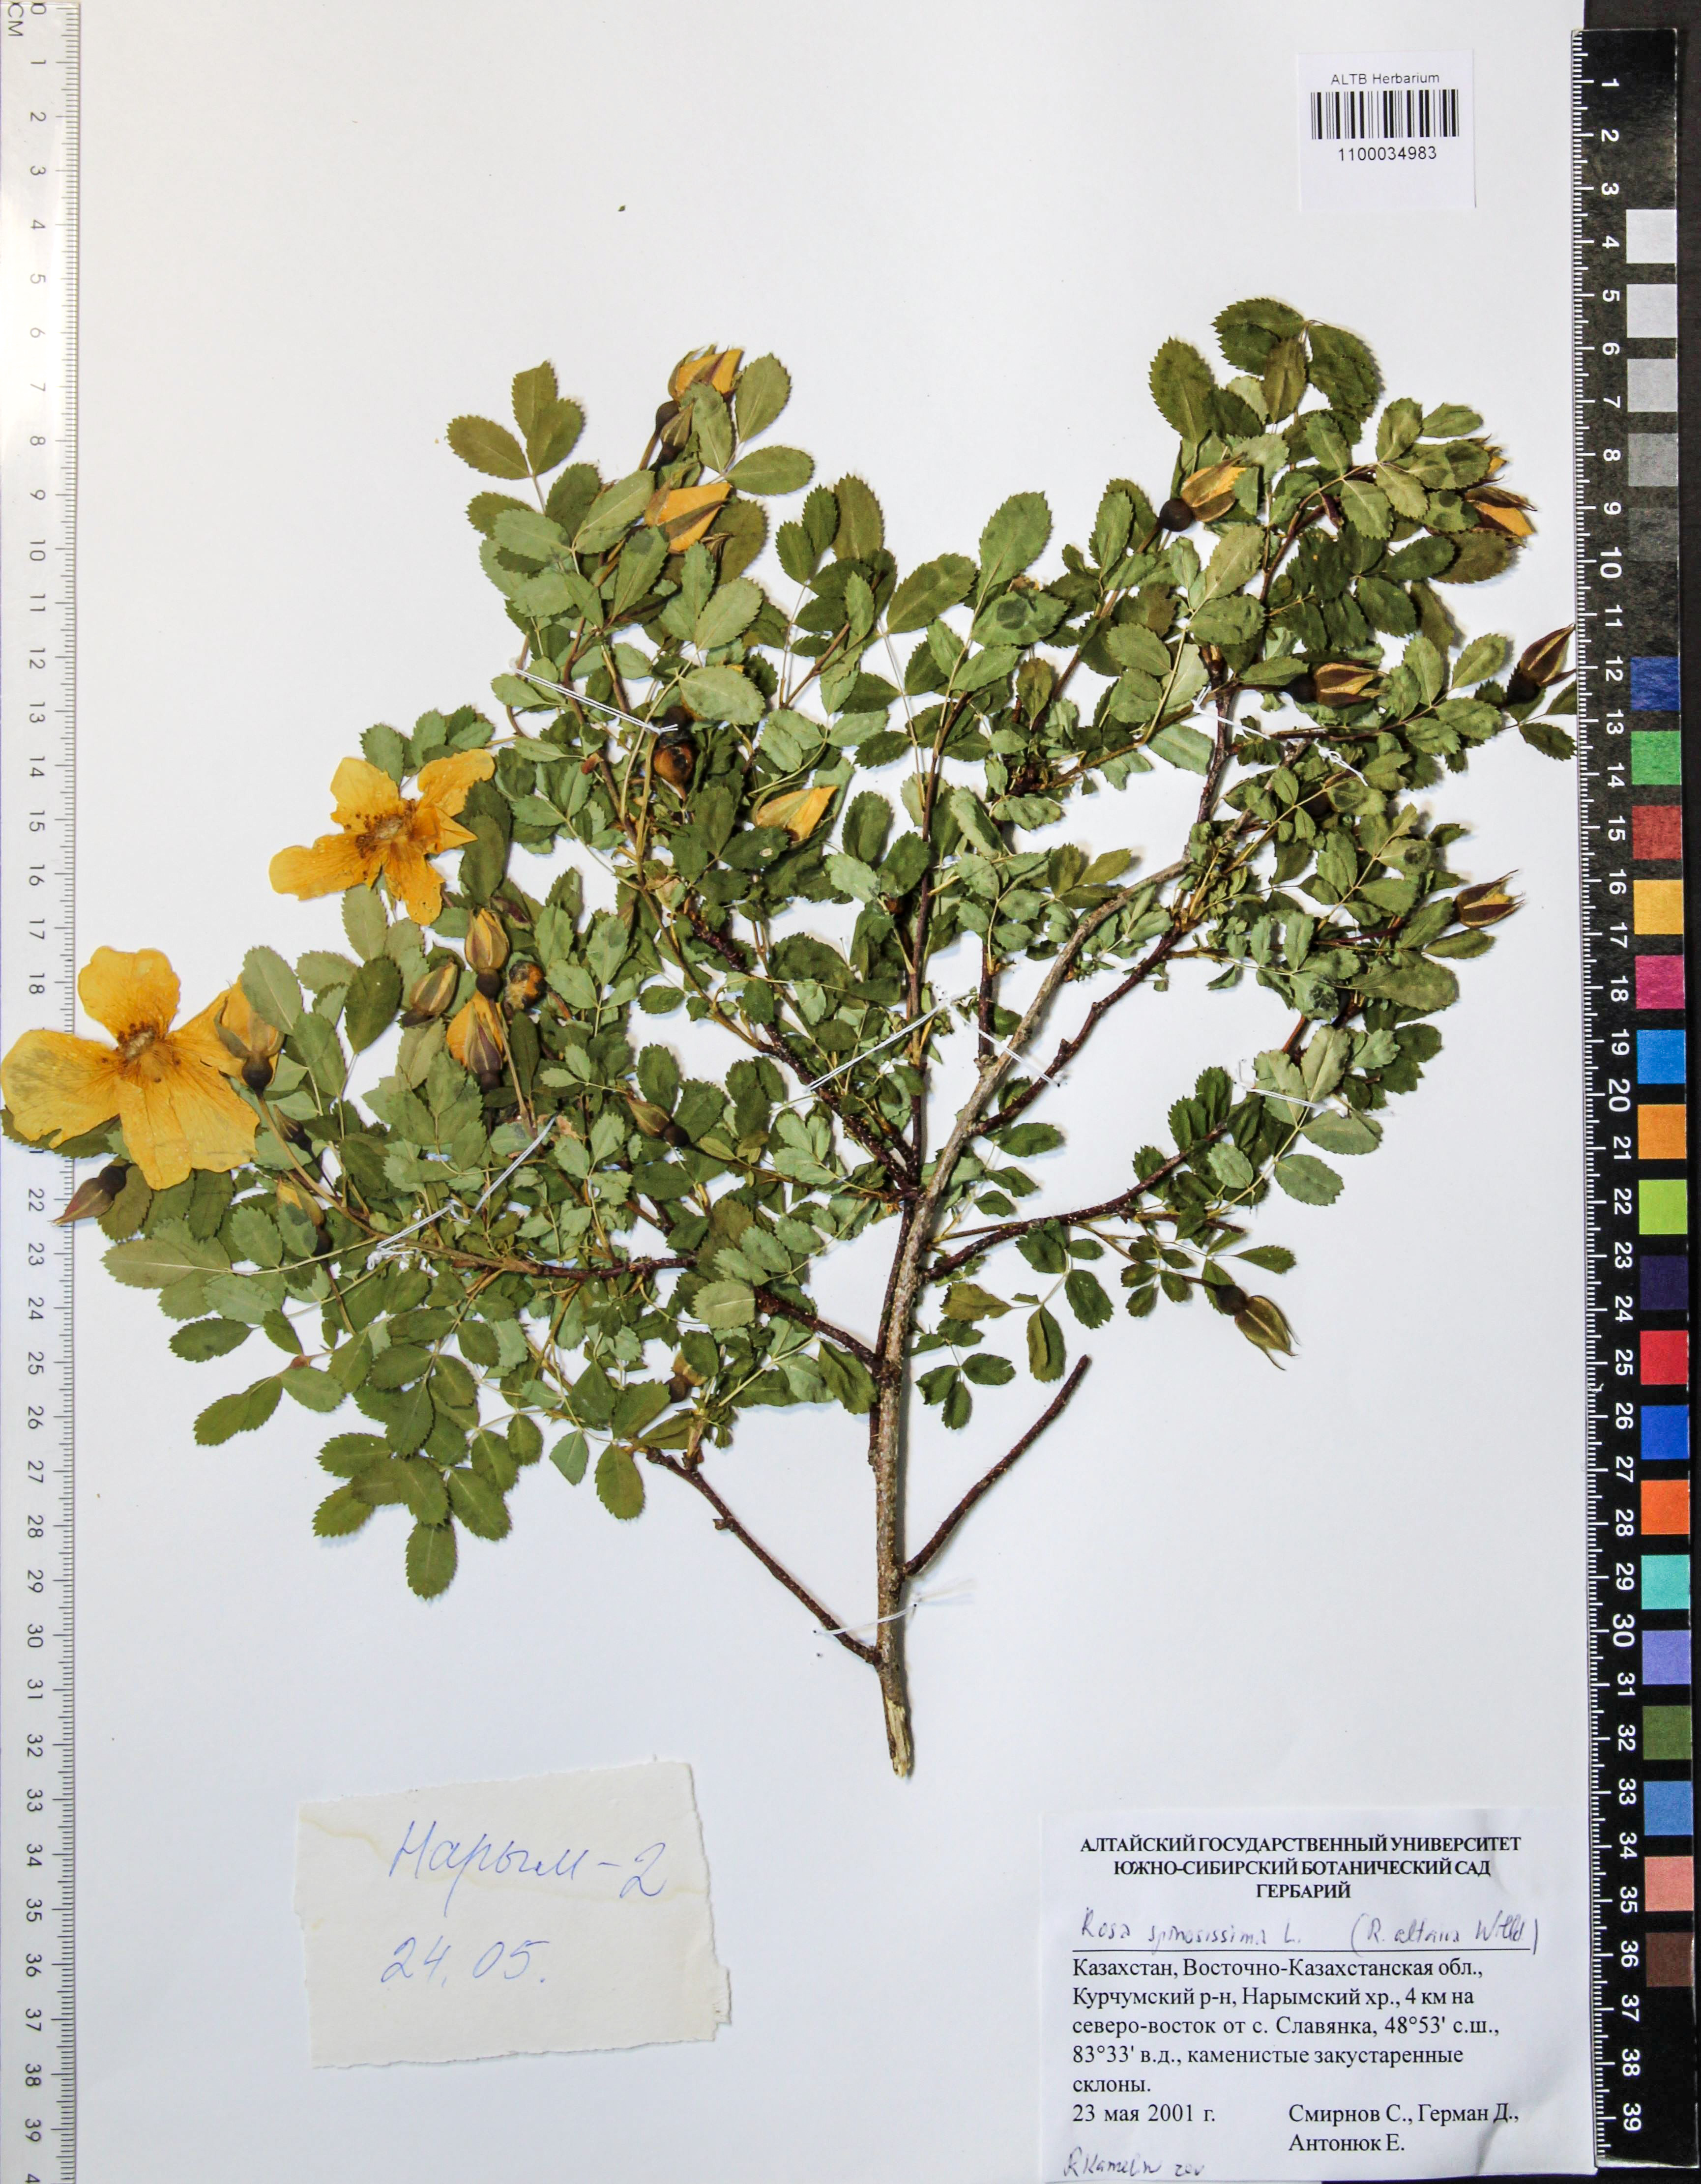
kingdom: Plantae
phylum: Tracheophyta
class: Magnoliopsida
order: Rosales
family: Rosaceae
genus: Rosa
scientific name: Rosa spinosissima
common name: Burnet rose
